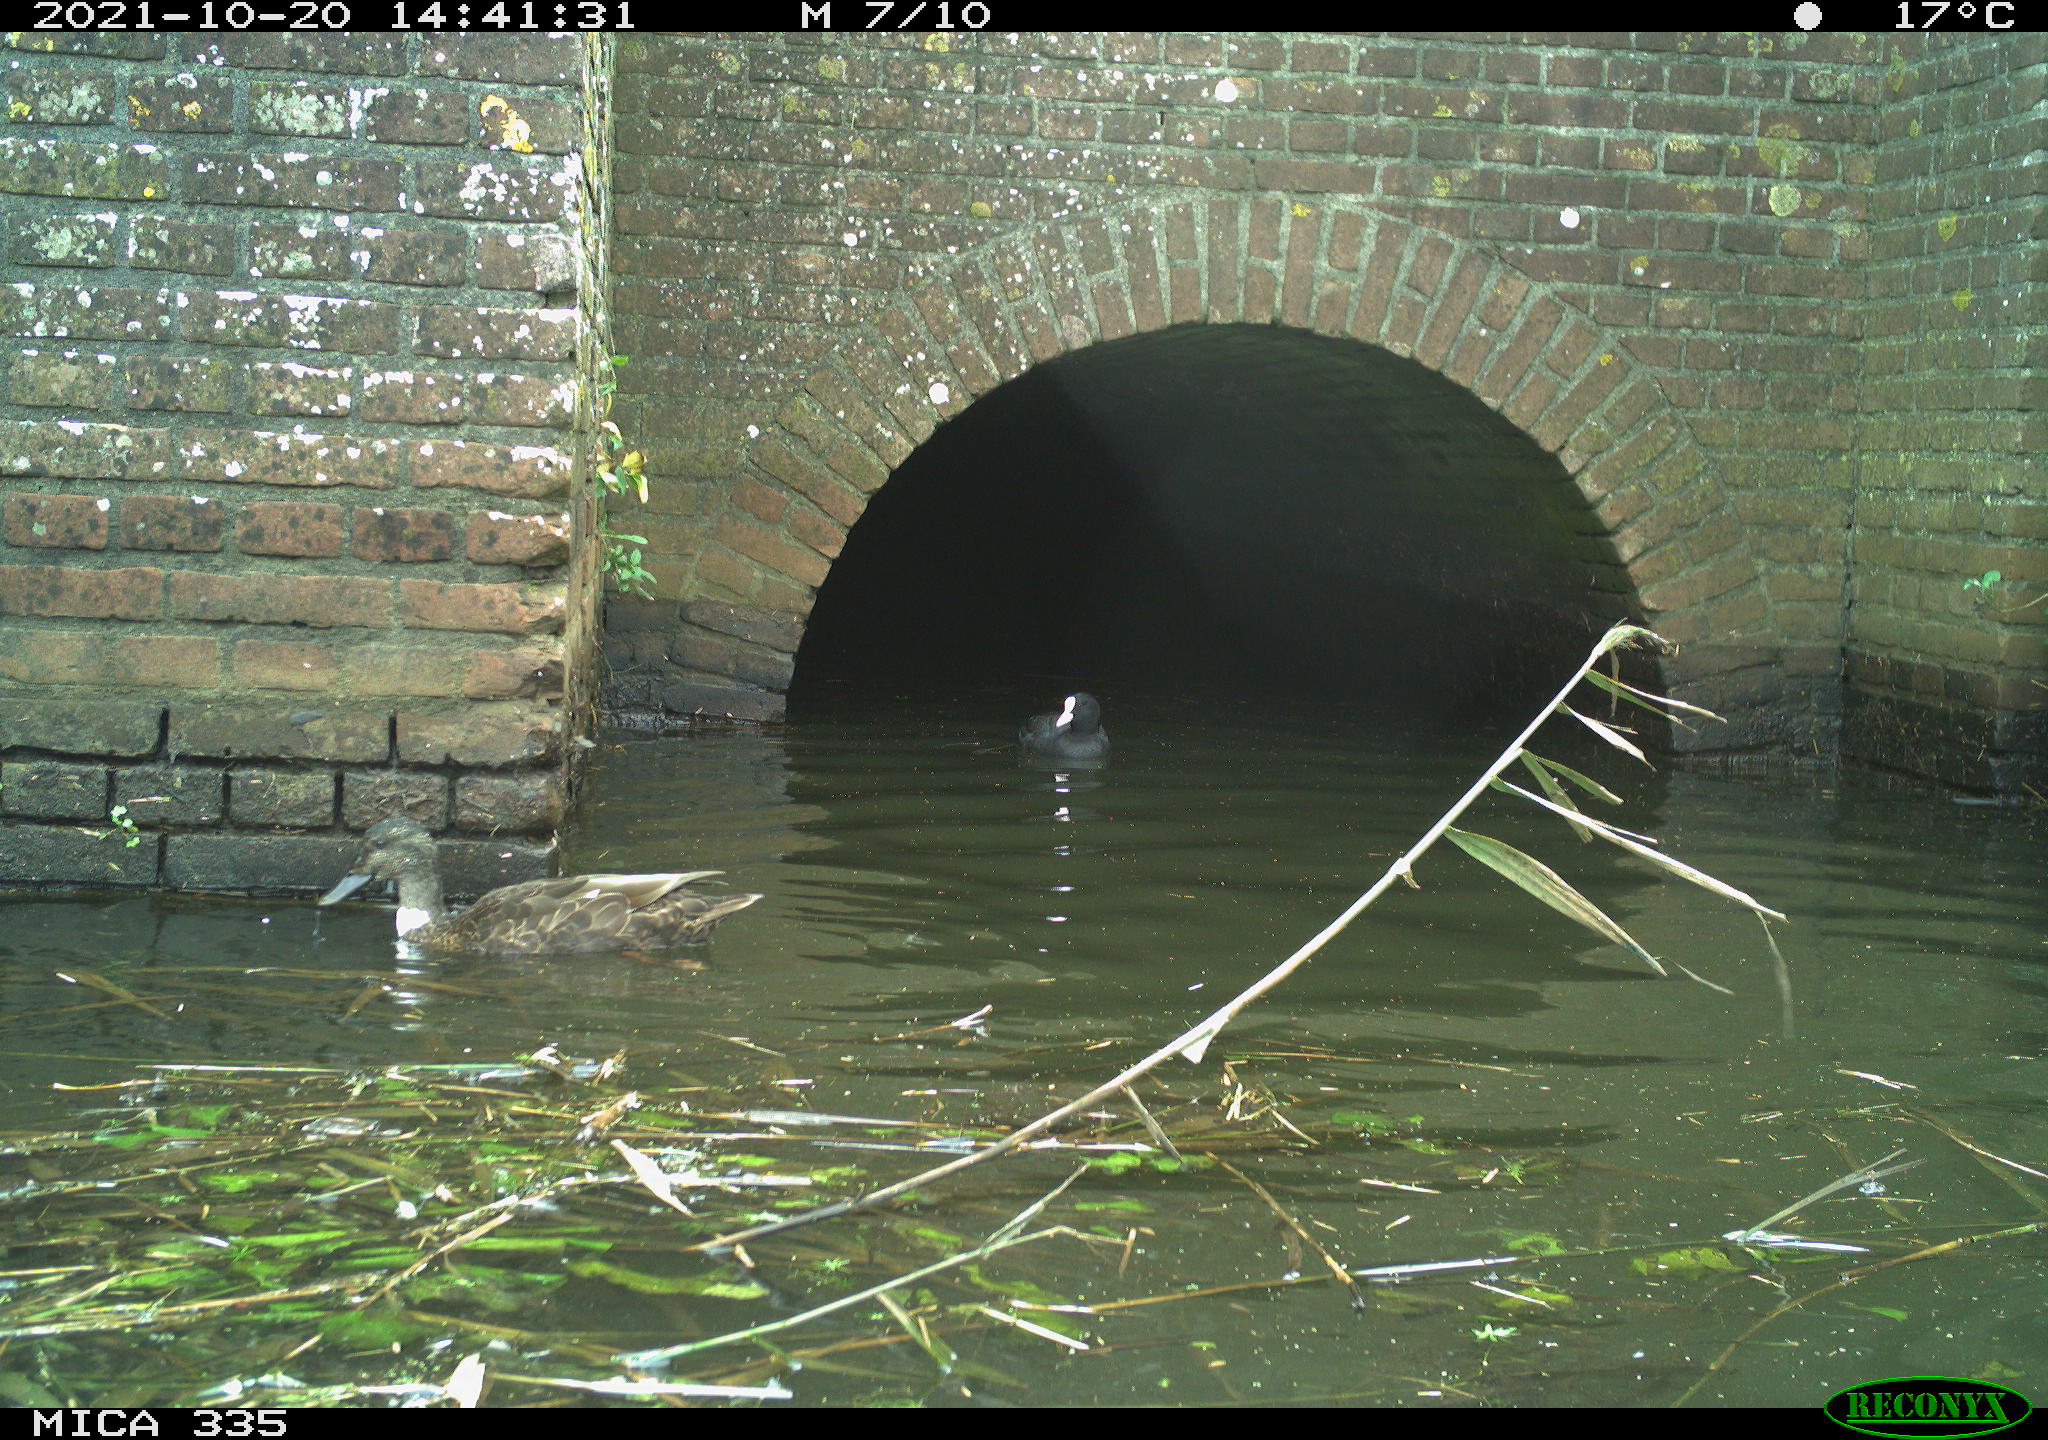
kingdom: Animalia
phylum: Chordata
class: Aves
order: Anseriformes
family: Anatidae
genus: Anas
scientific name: Anas platyrhynchos
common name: Mallard
